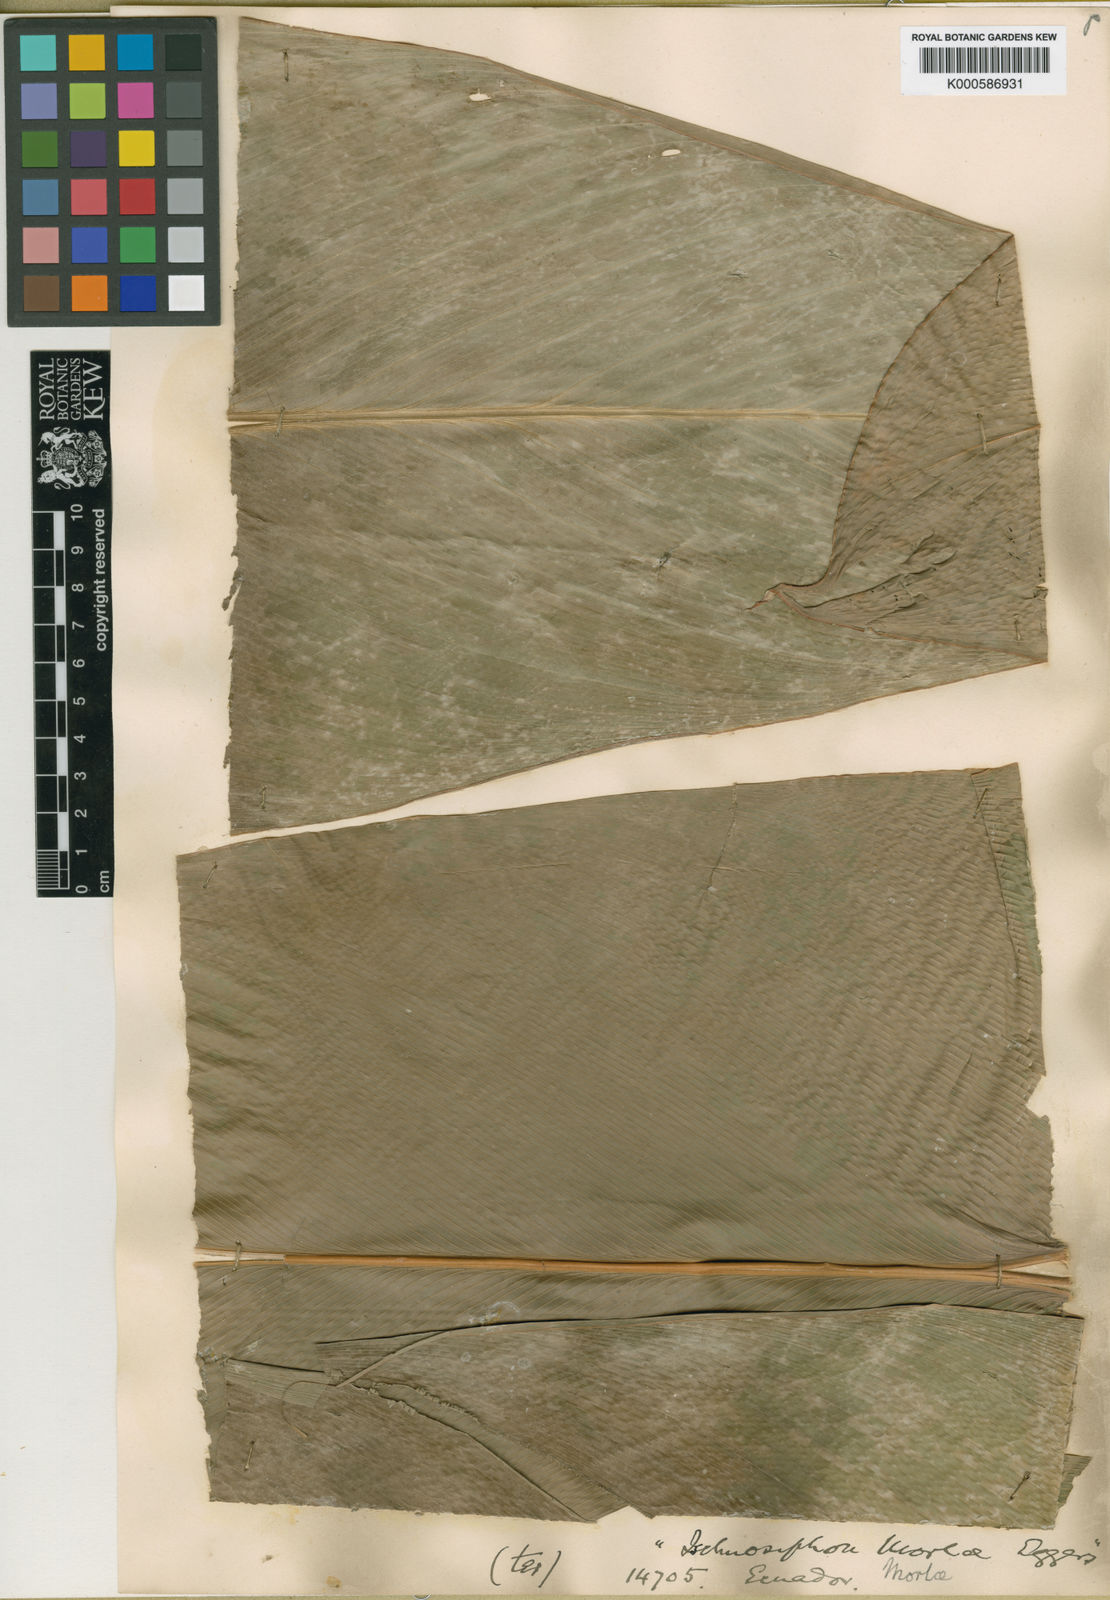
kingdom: Plantae
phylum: Tracheophyta
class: Liliopsida
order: Zingiberales
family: Marantaceae
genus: Pleiostachya
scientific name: Pleiostachya
